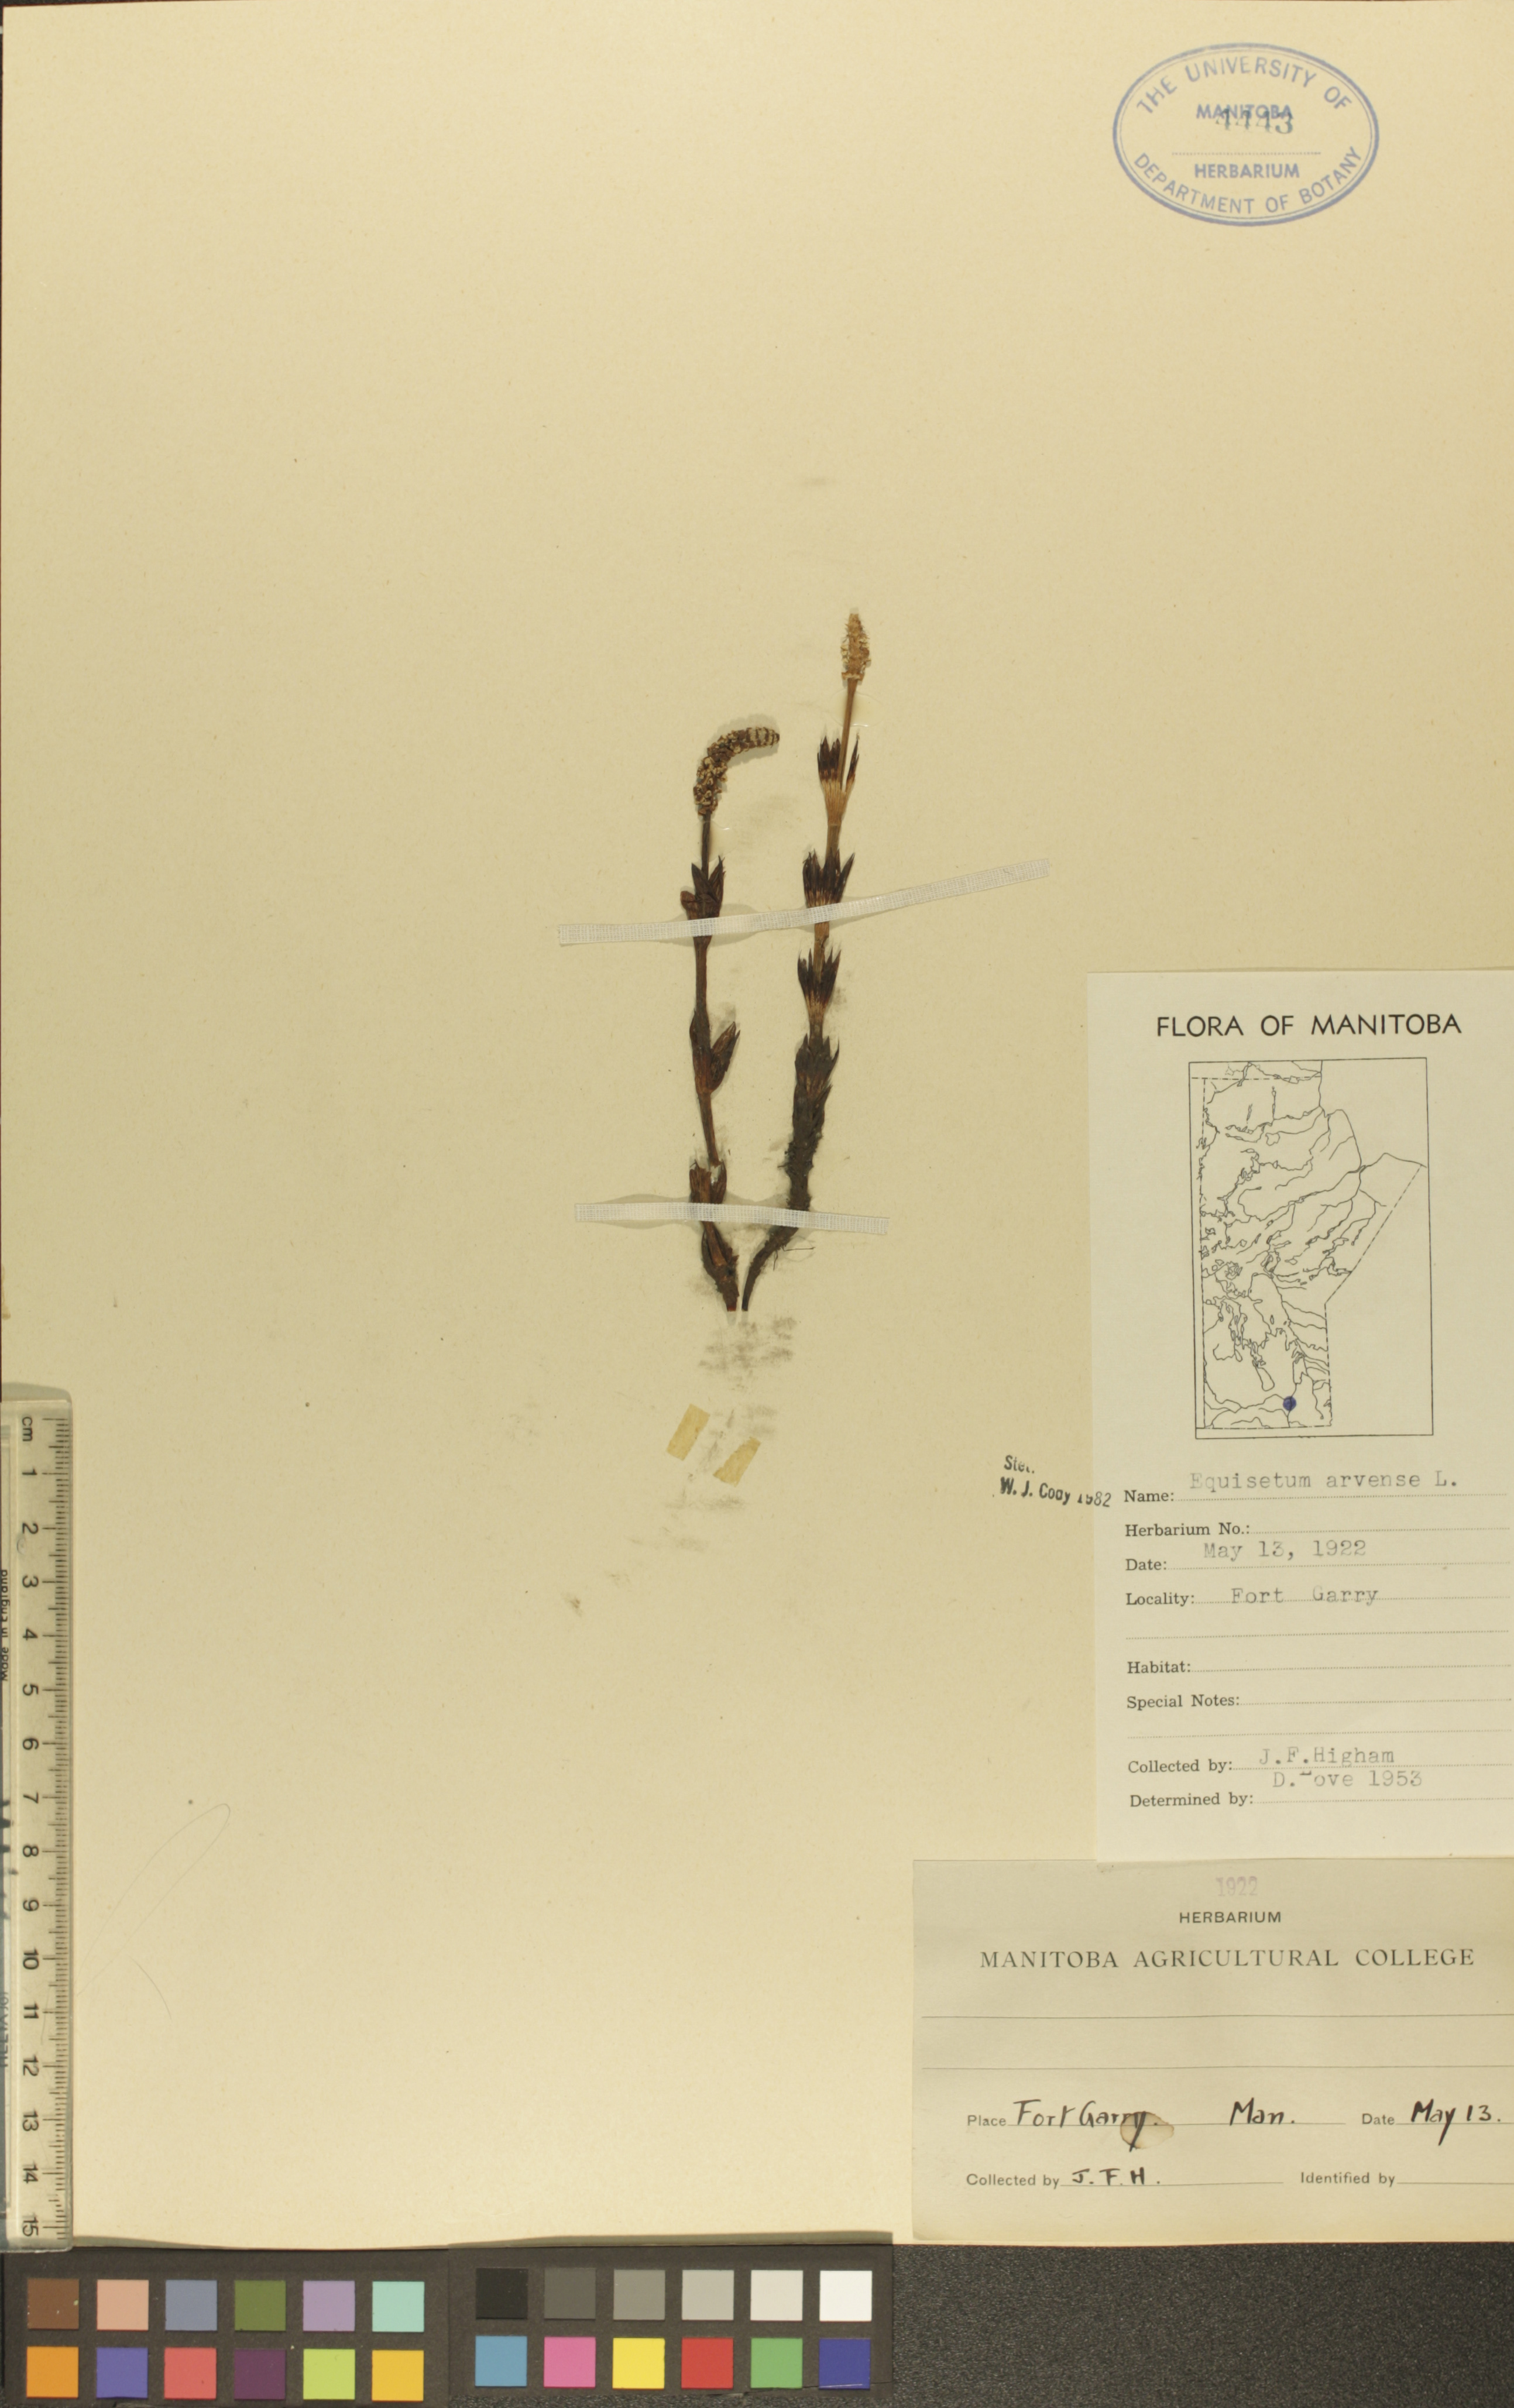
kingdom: Plantae
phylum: Tracheophyta
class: Polypodiopsida
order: Equisetales
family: Equisetaceae
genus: Equisetum
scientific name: Equisetum arvense
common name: Field horsetail
